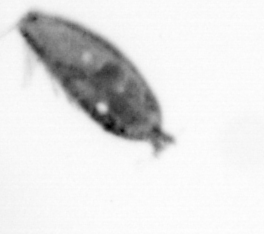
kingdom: Animalia
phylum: Arthropoda
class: Maxillopoda
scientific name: Maxillopoda
